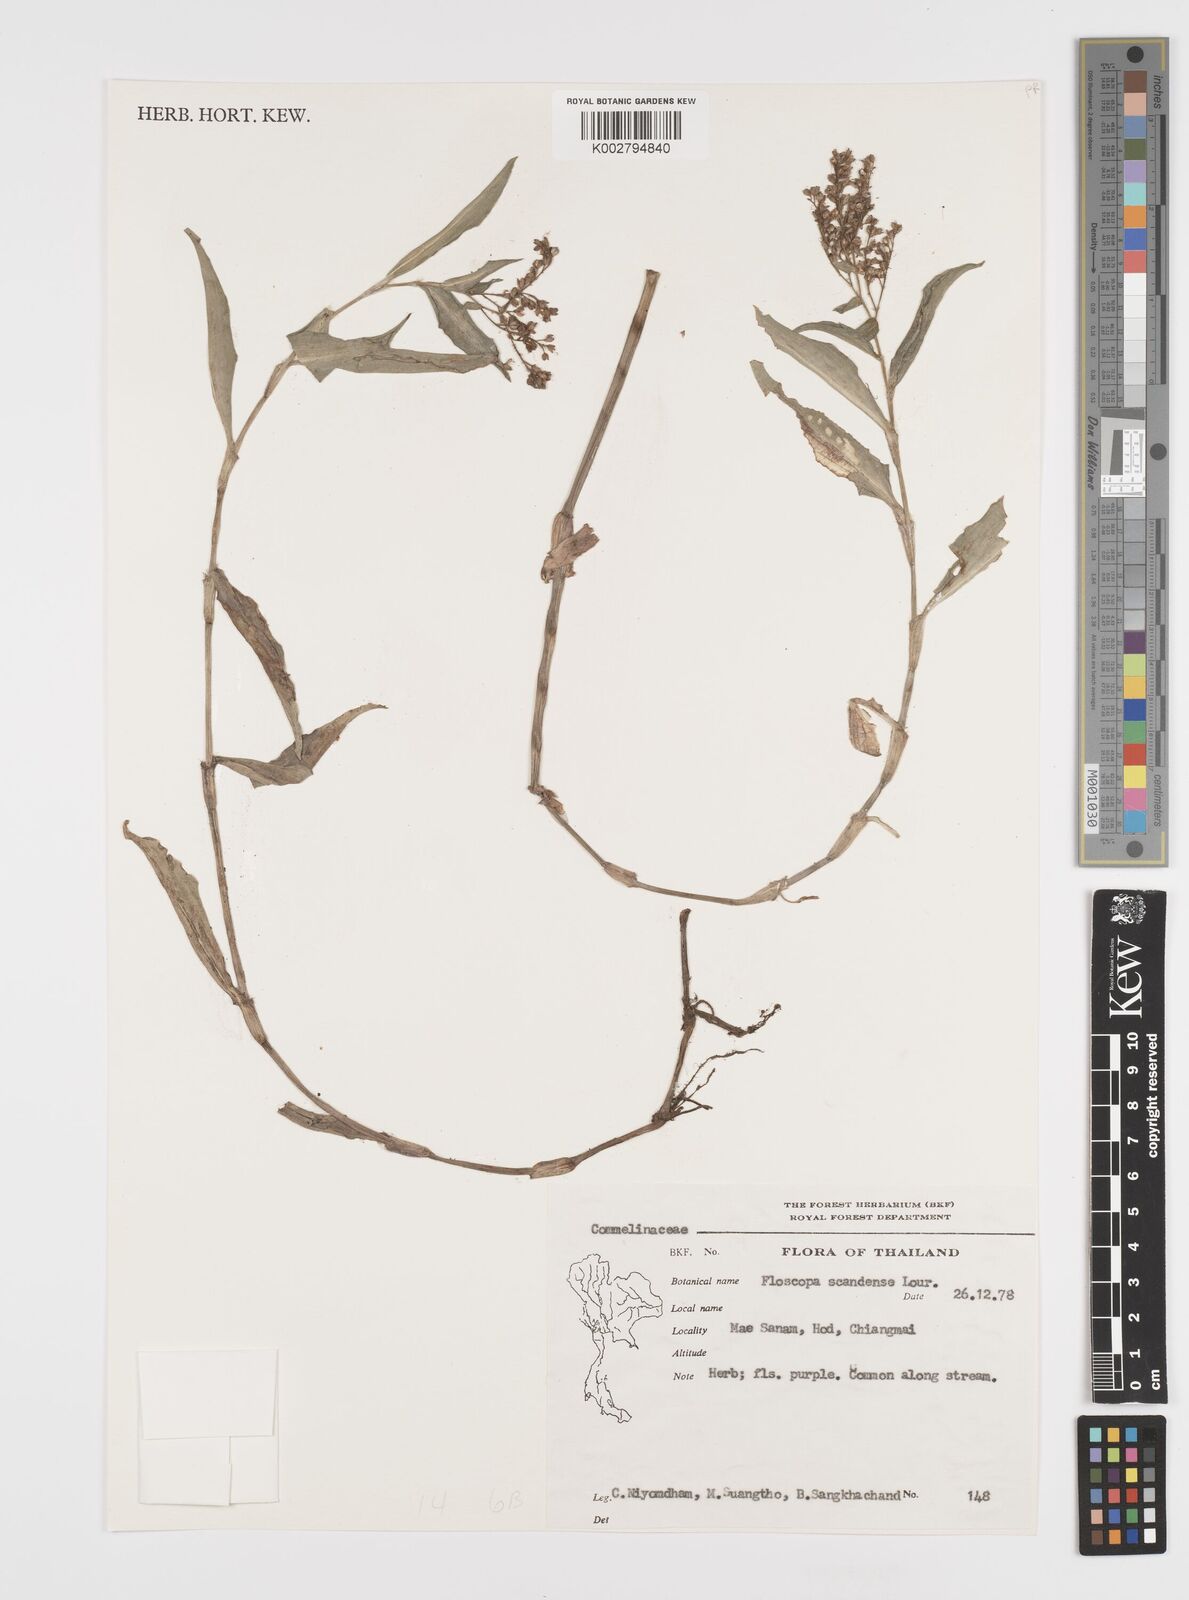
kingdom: Plantae
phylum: Tracheophyta
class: Liliopsida
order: Commelinales
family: Commelinaceae
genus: Floscopa
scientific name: Floscopa scandens
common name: Climbing flower cup
